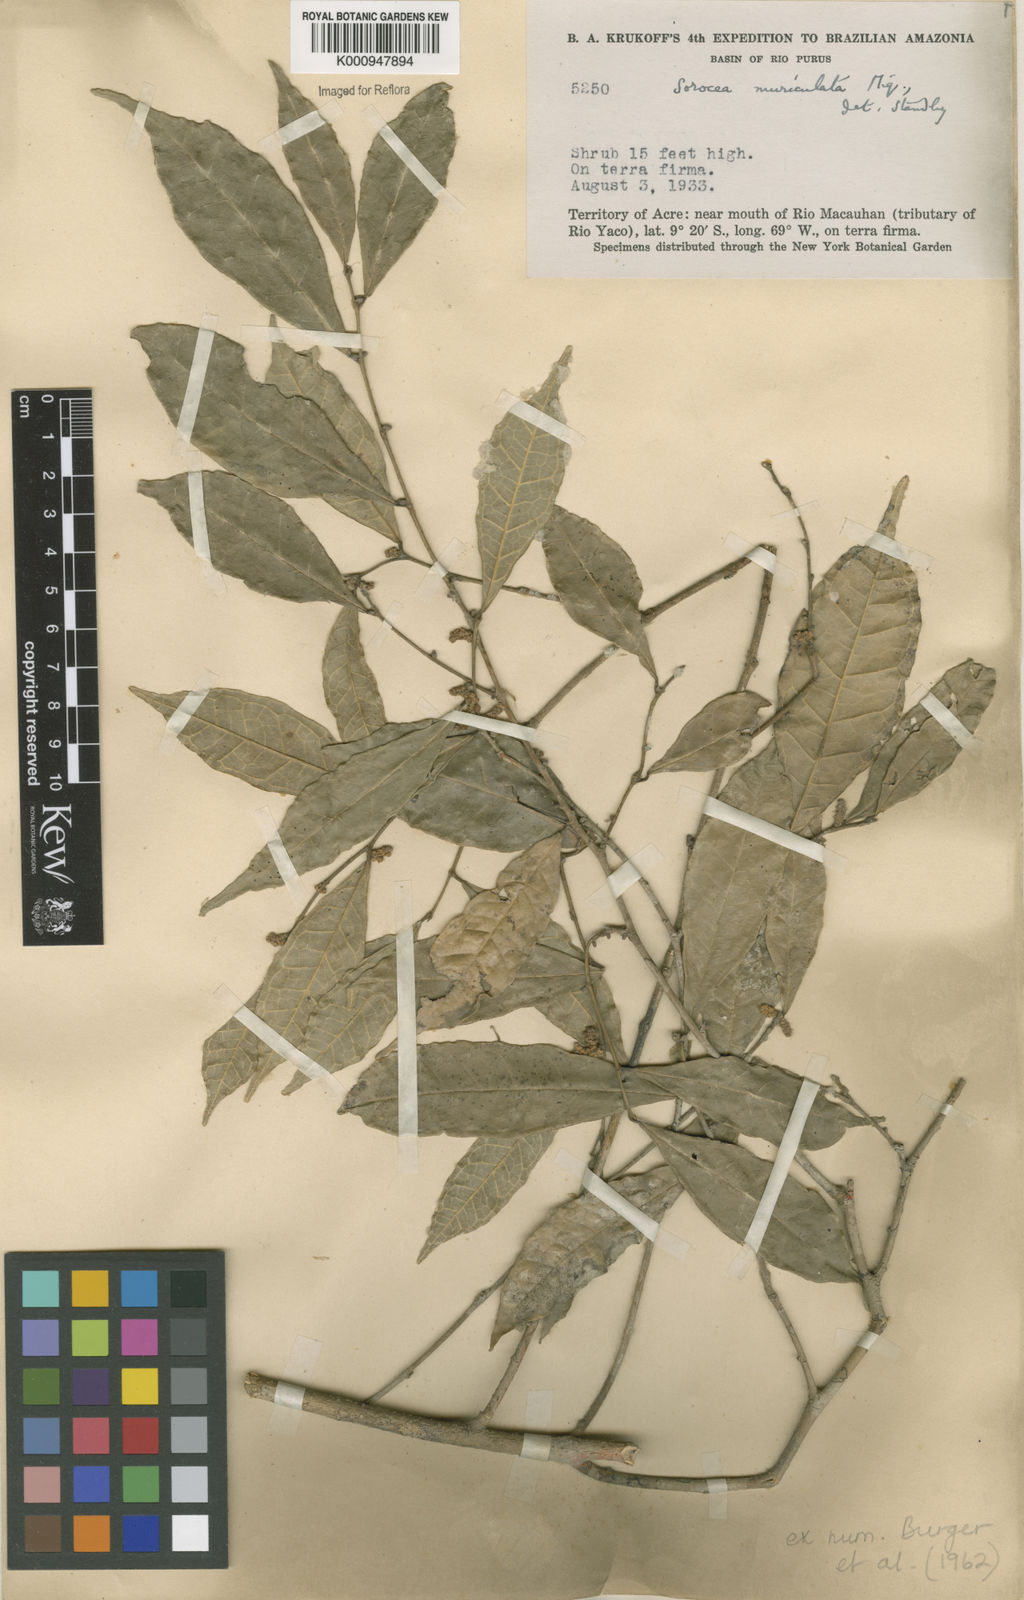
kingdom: Plantae
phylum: Tracheophyta
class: Magnoliopsida
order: Rosales
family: Moraceae
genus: Sorocea
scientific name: Sorocea muriculata
